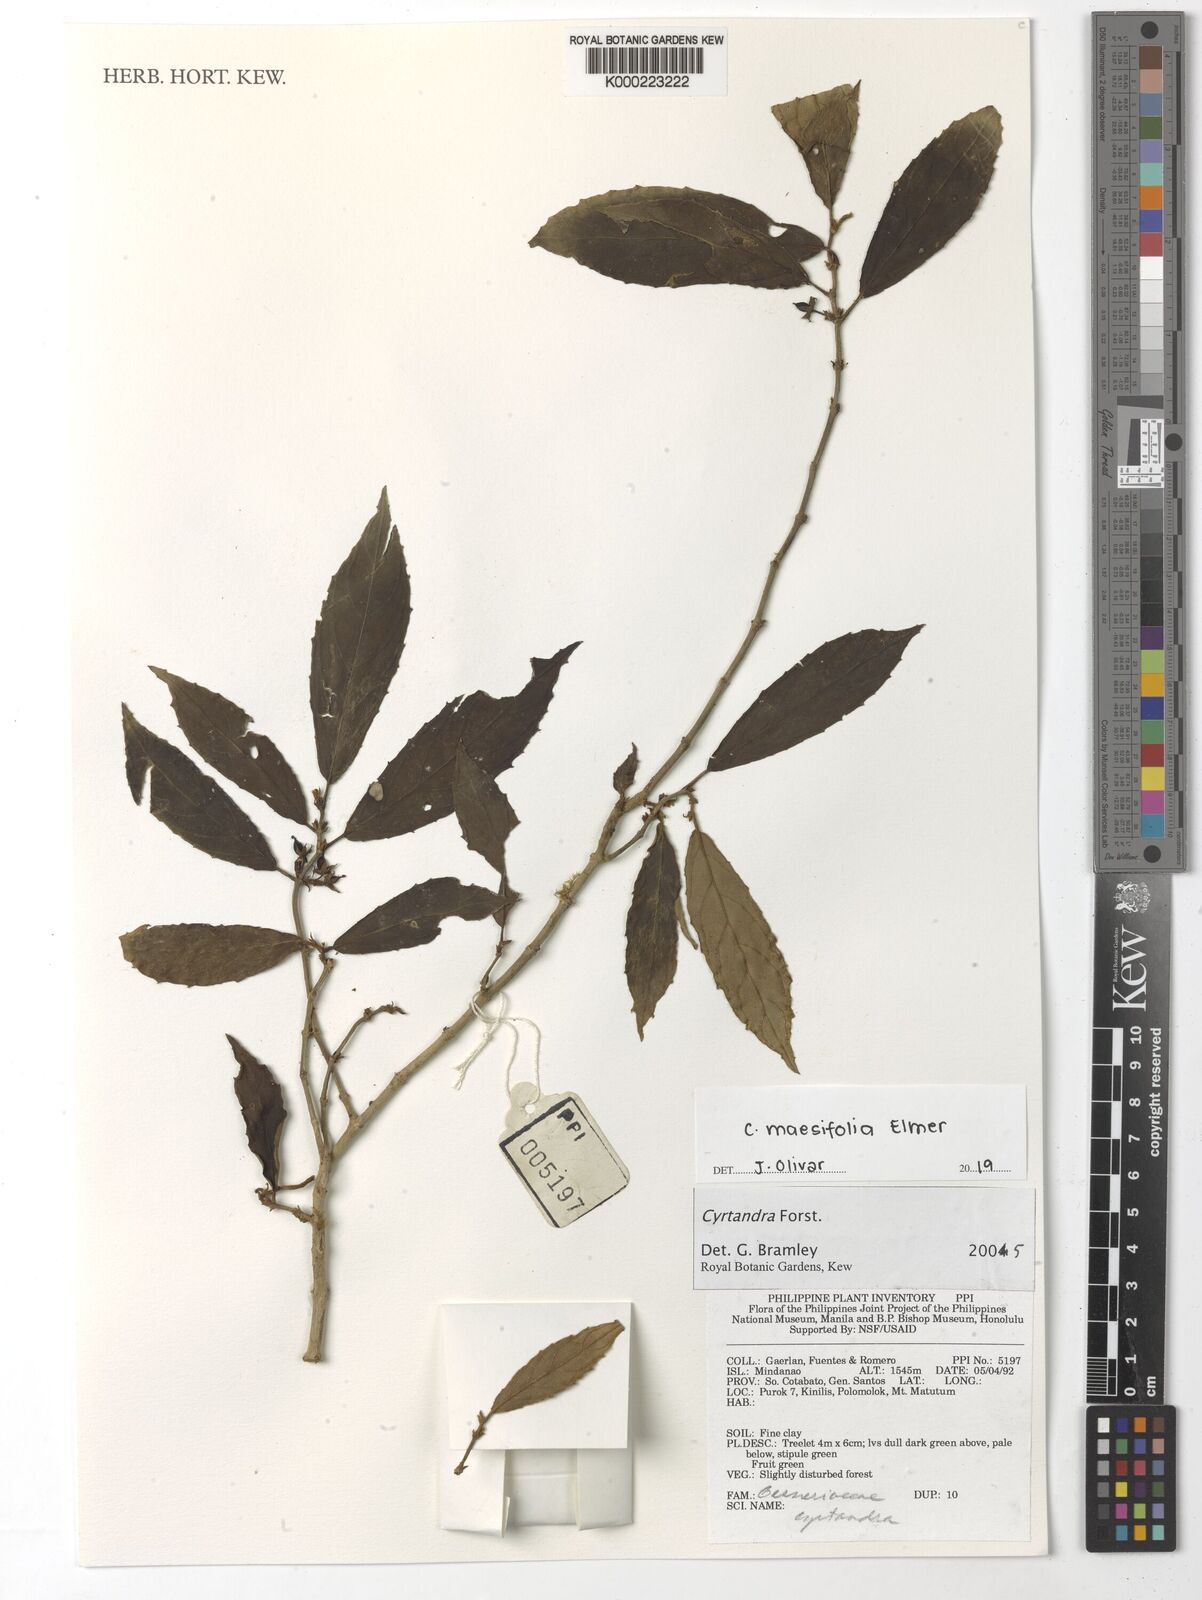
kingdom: Plantae
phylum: Tracheophyta
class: Magnoliopsida
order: Lamiales
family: Gesneriaceae
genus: Cyrtandra
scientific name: Cyrtandra
